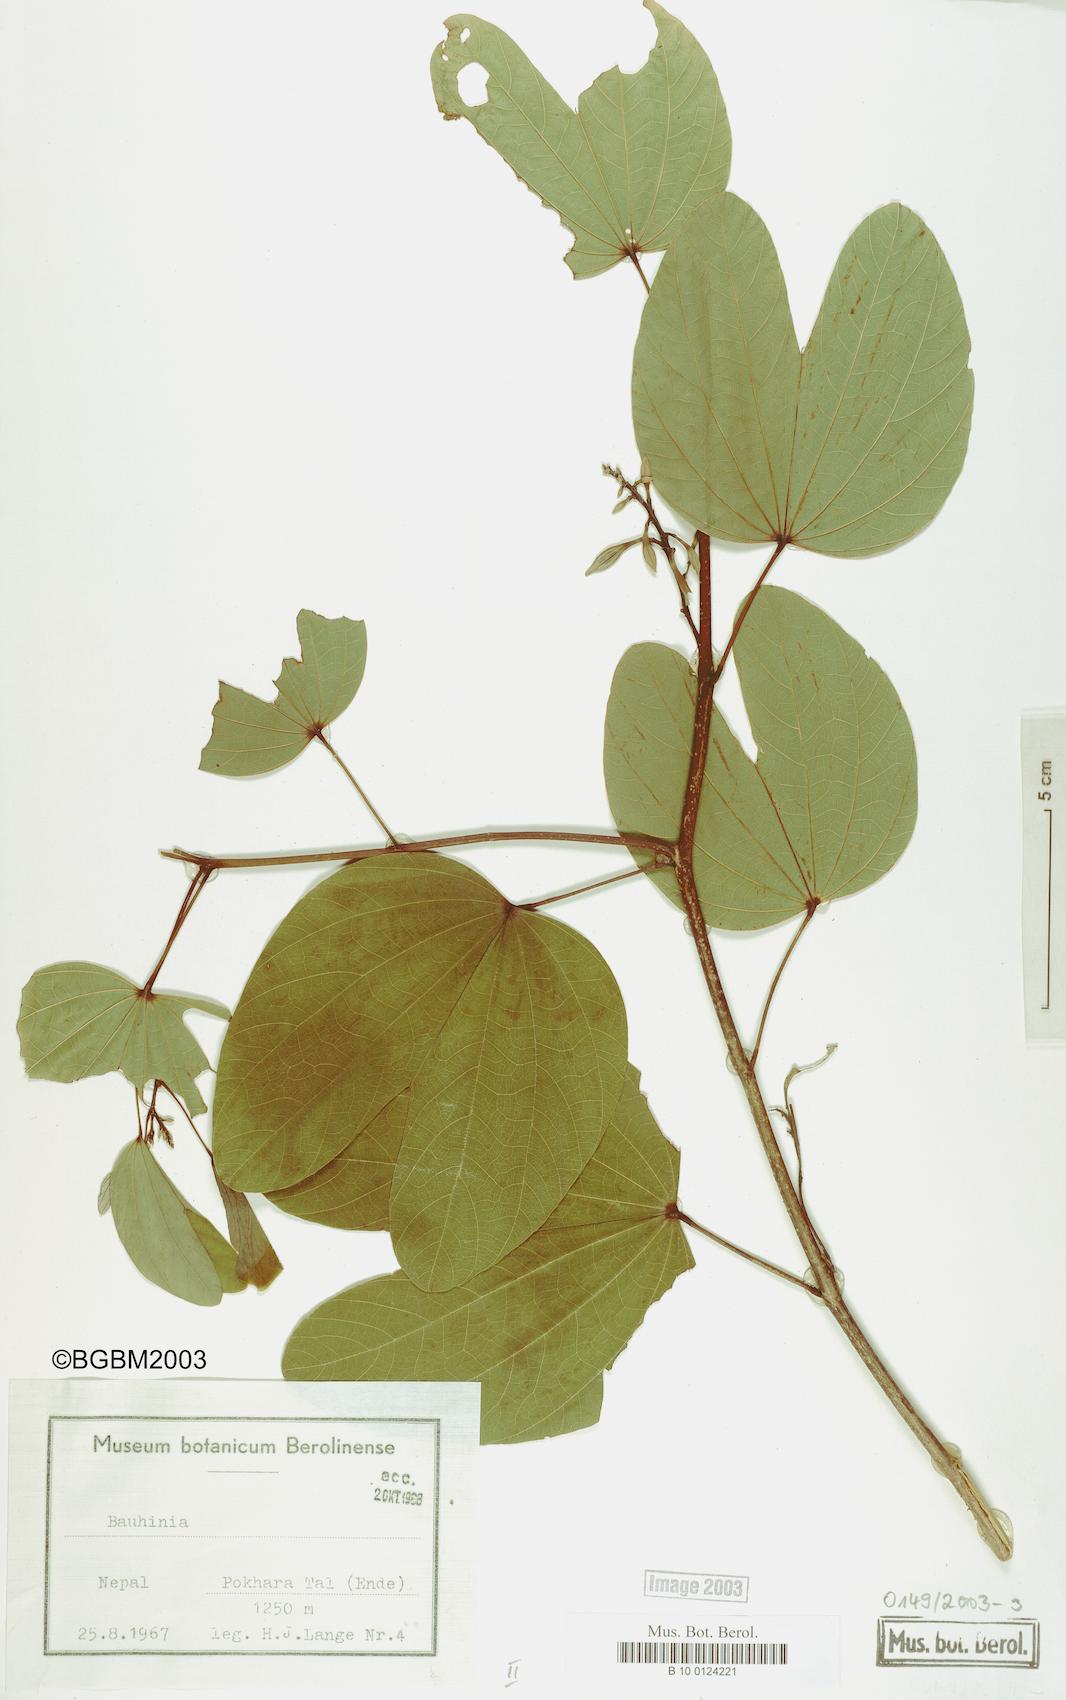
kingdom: Plantae
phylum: Tracheophyta
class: Magnoliopsida
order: Fabales
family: Fabaceae
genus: Bauhinia
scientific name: Bauhinia
